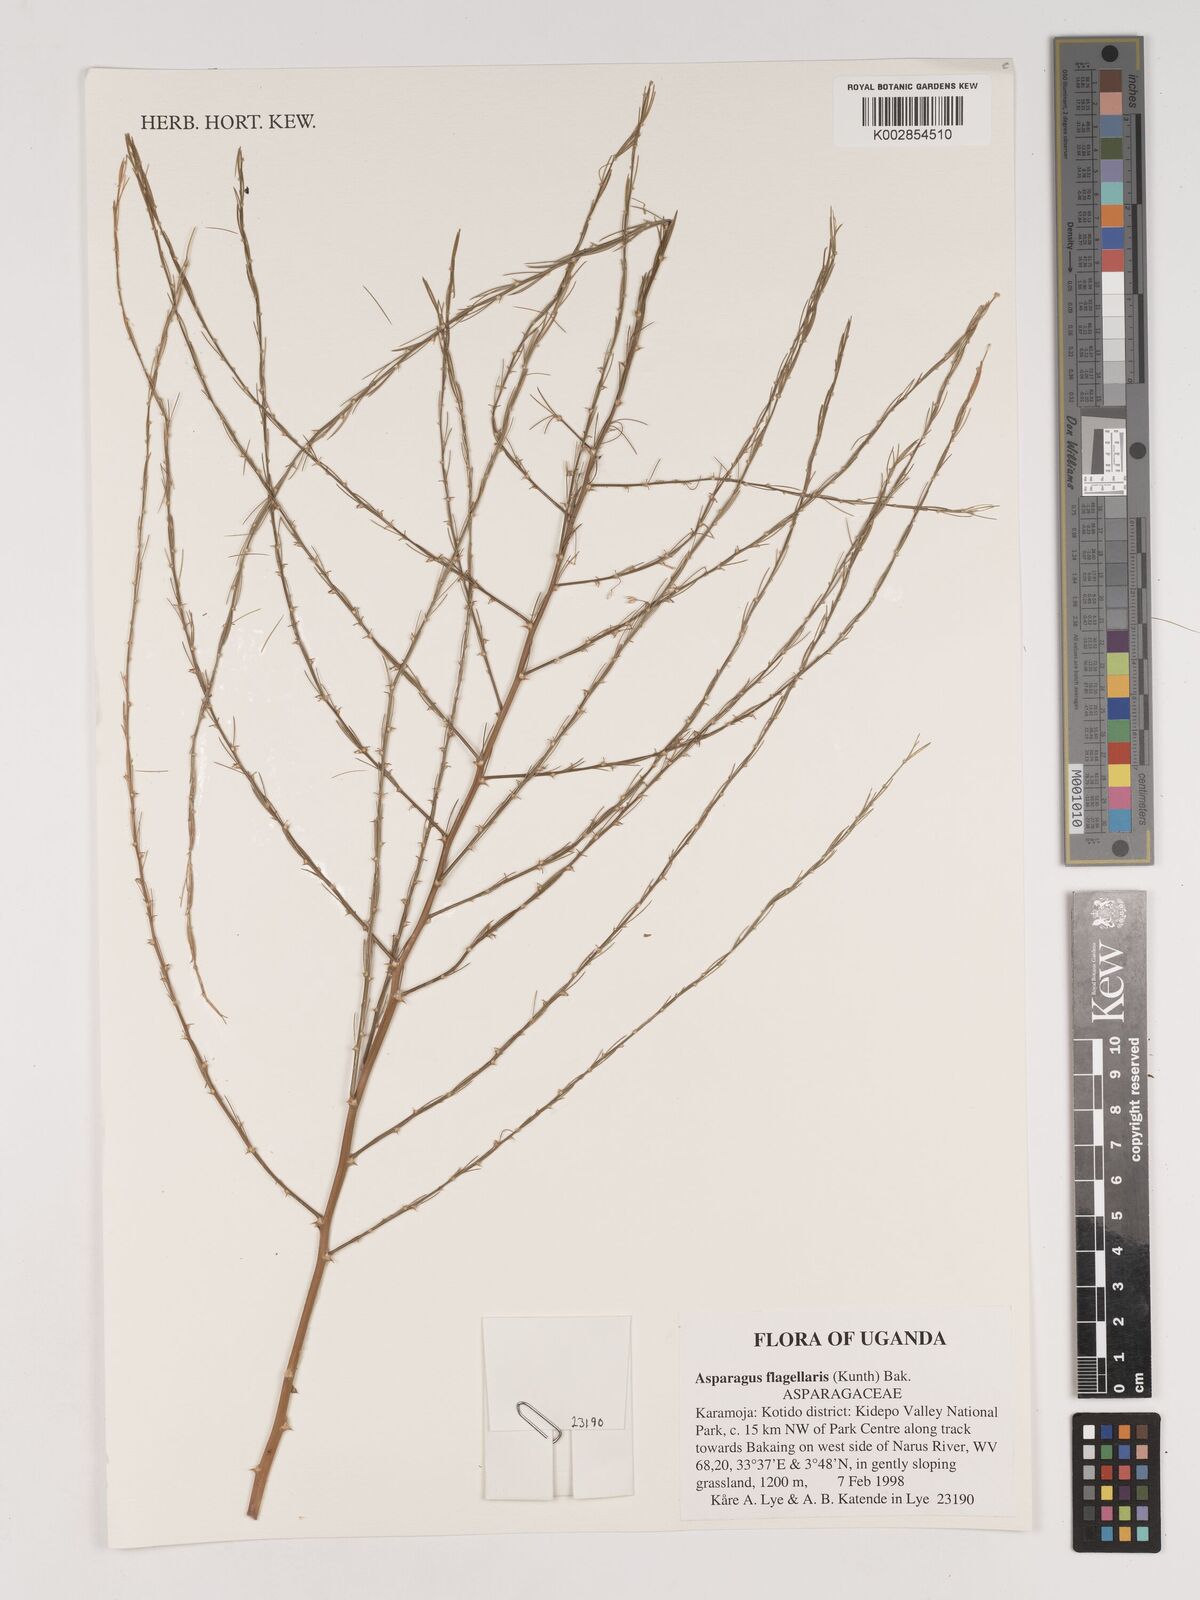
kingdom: Plantae
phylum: Tracheophyta
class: Liliopsida
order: Asparagales
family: Asparagaceae
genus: Asparagus
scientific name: Asparagus flagellaris
